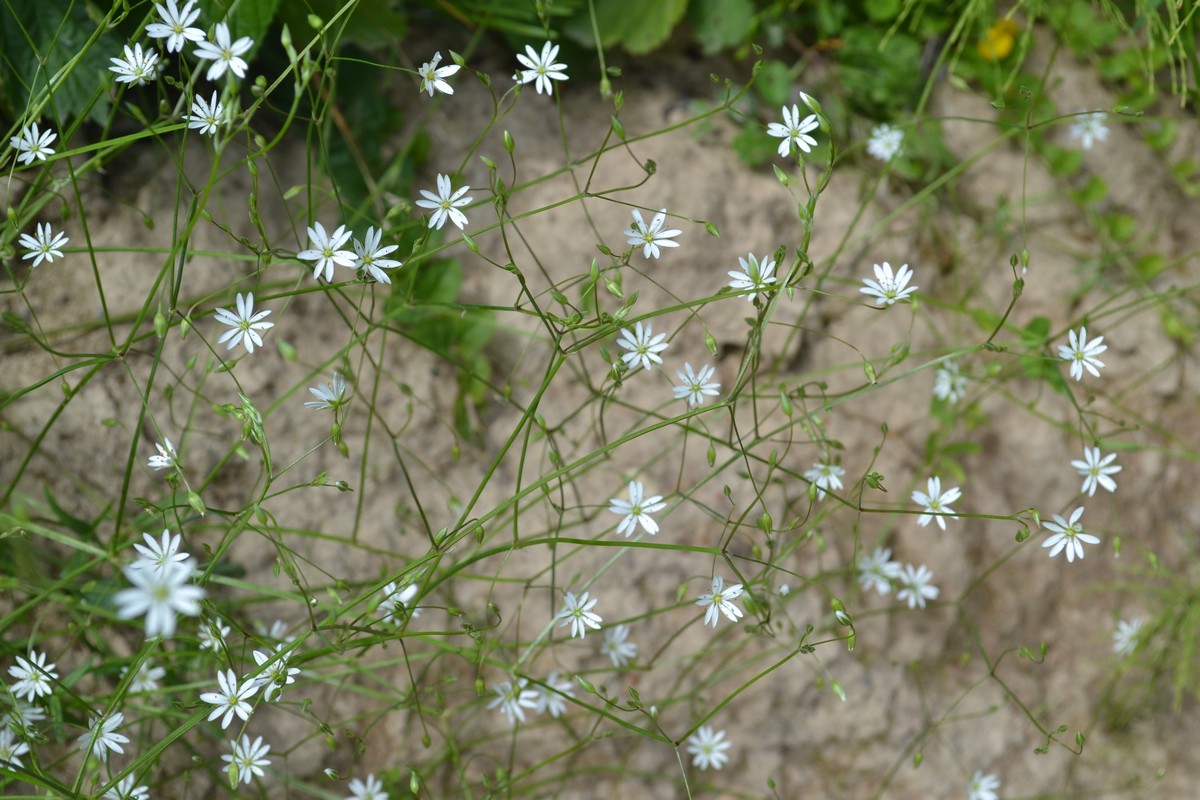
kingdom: Plantae
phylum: Tracheophyta
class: Magnoliopsida
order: Caryophyllales
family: Caryophyllaceae
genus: Stellaria
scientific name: Stellaria graminea
